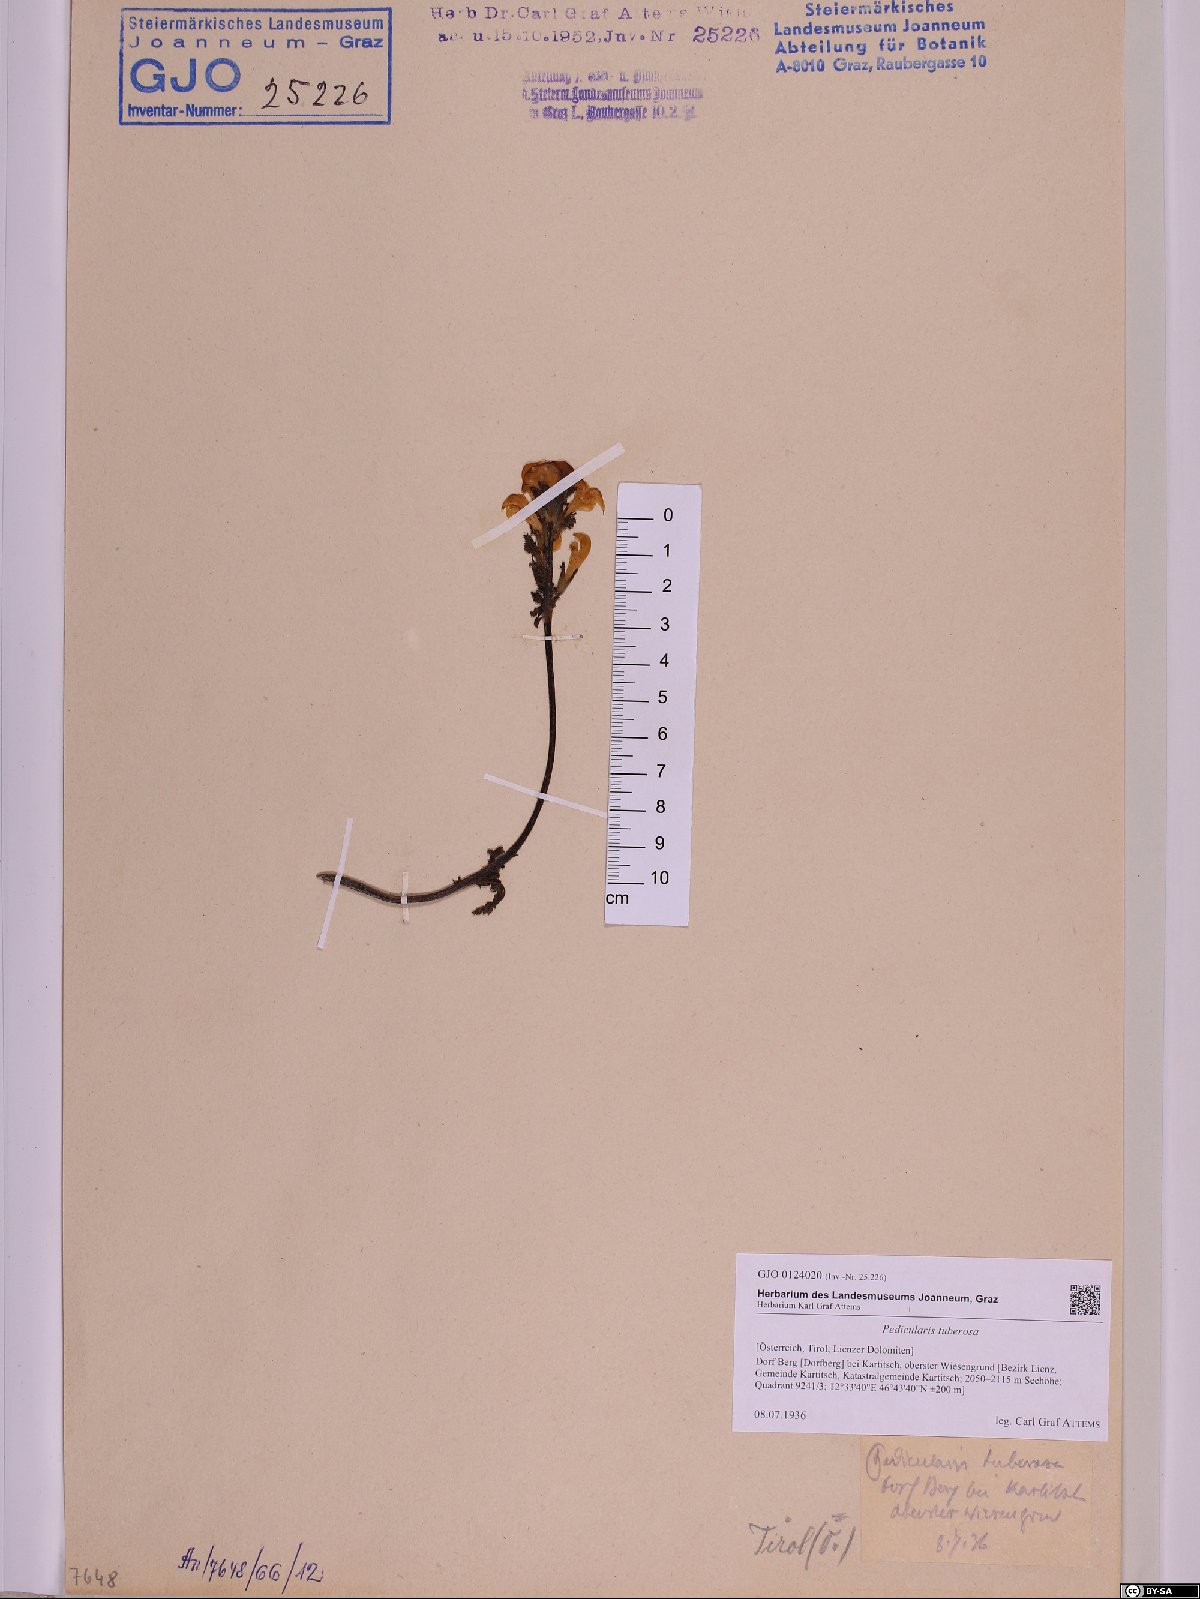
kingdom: Plantae
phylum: Tracheophyta
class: Magnoliopsida
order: Lamiales
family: Orobanchaceae
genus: Pedicularis
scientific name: Pedicularis tuberosa
